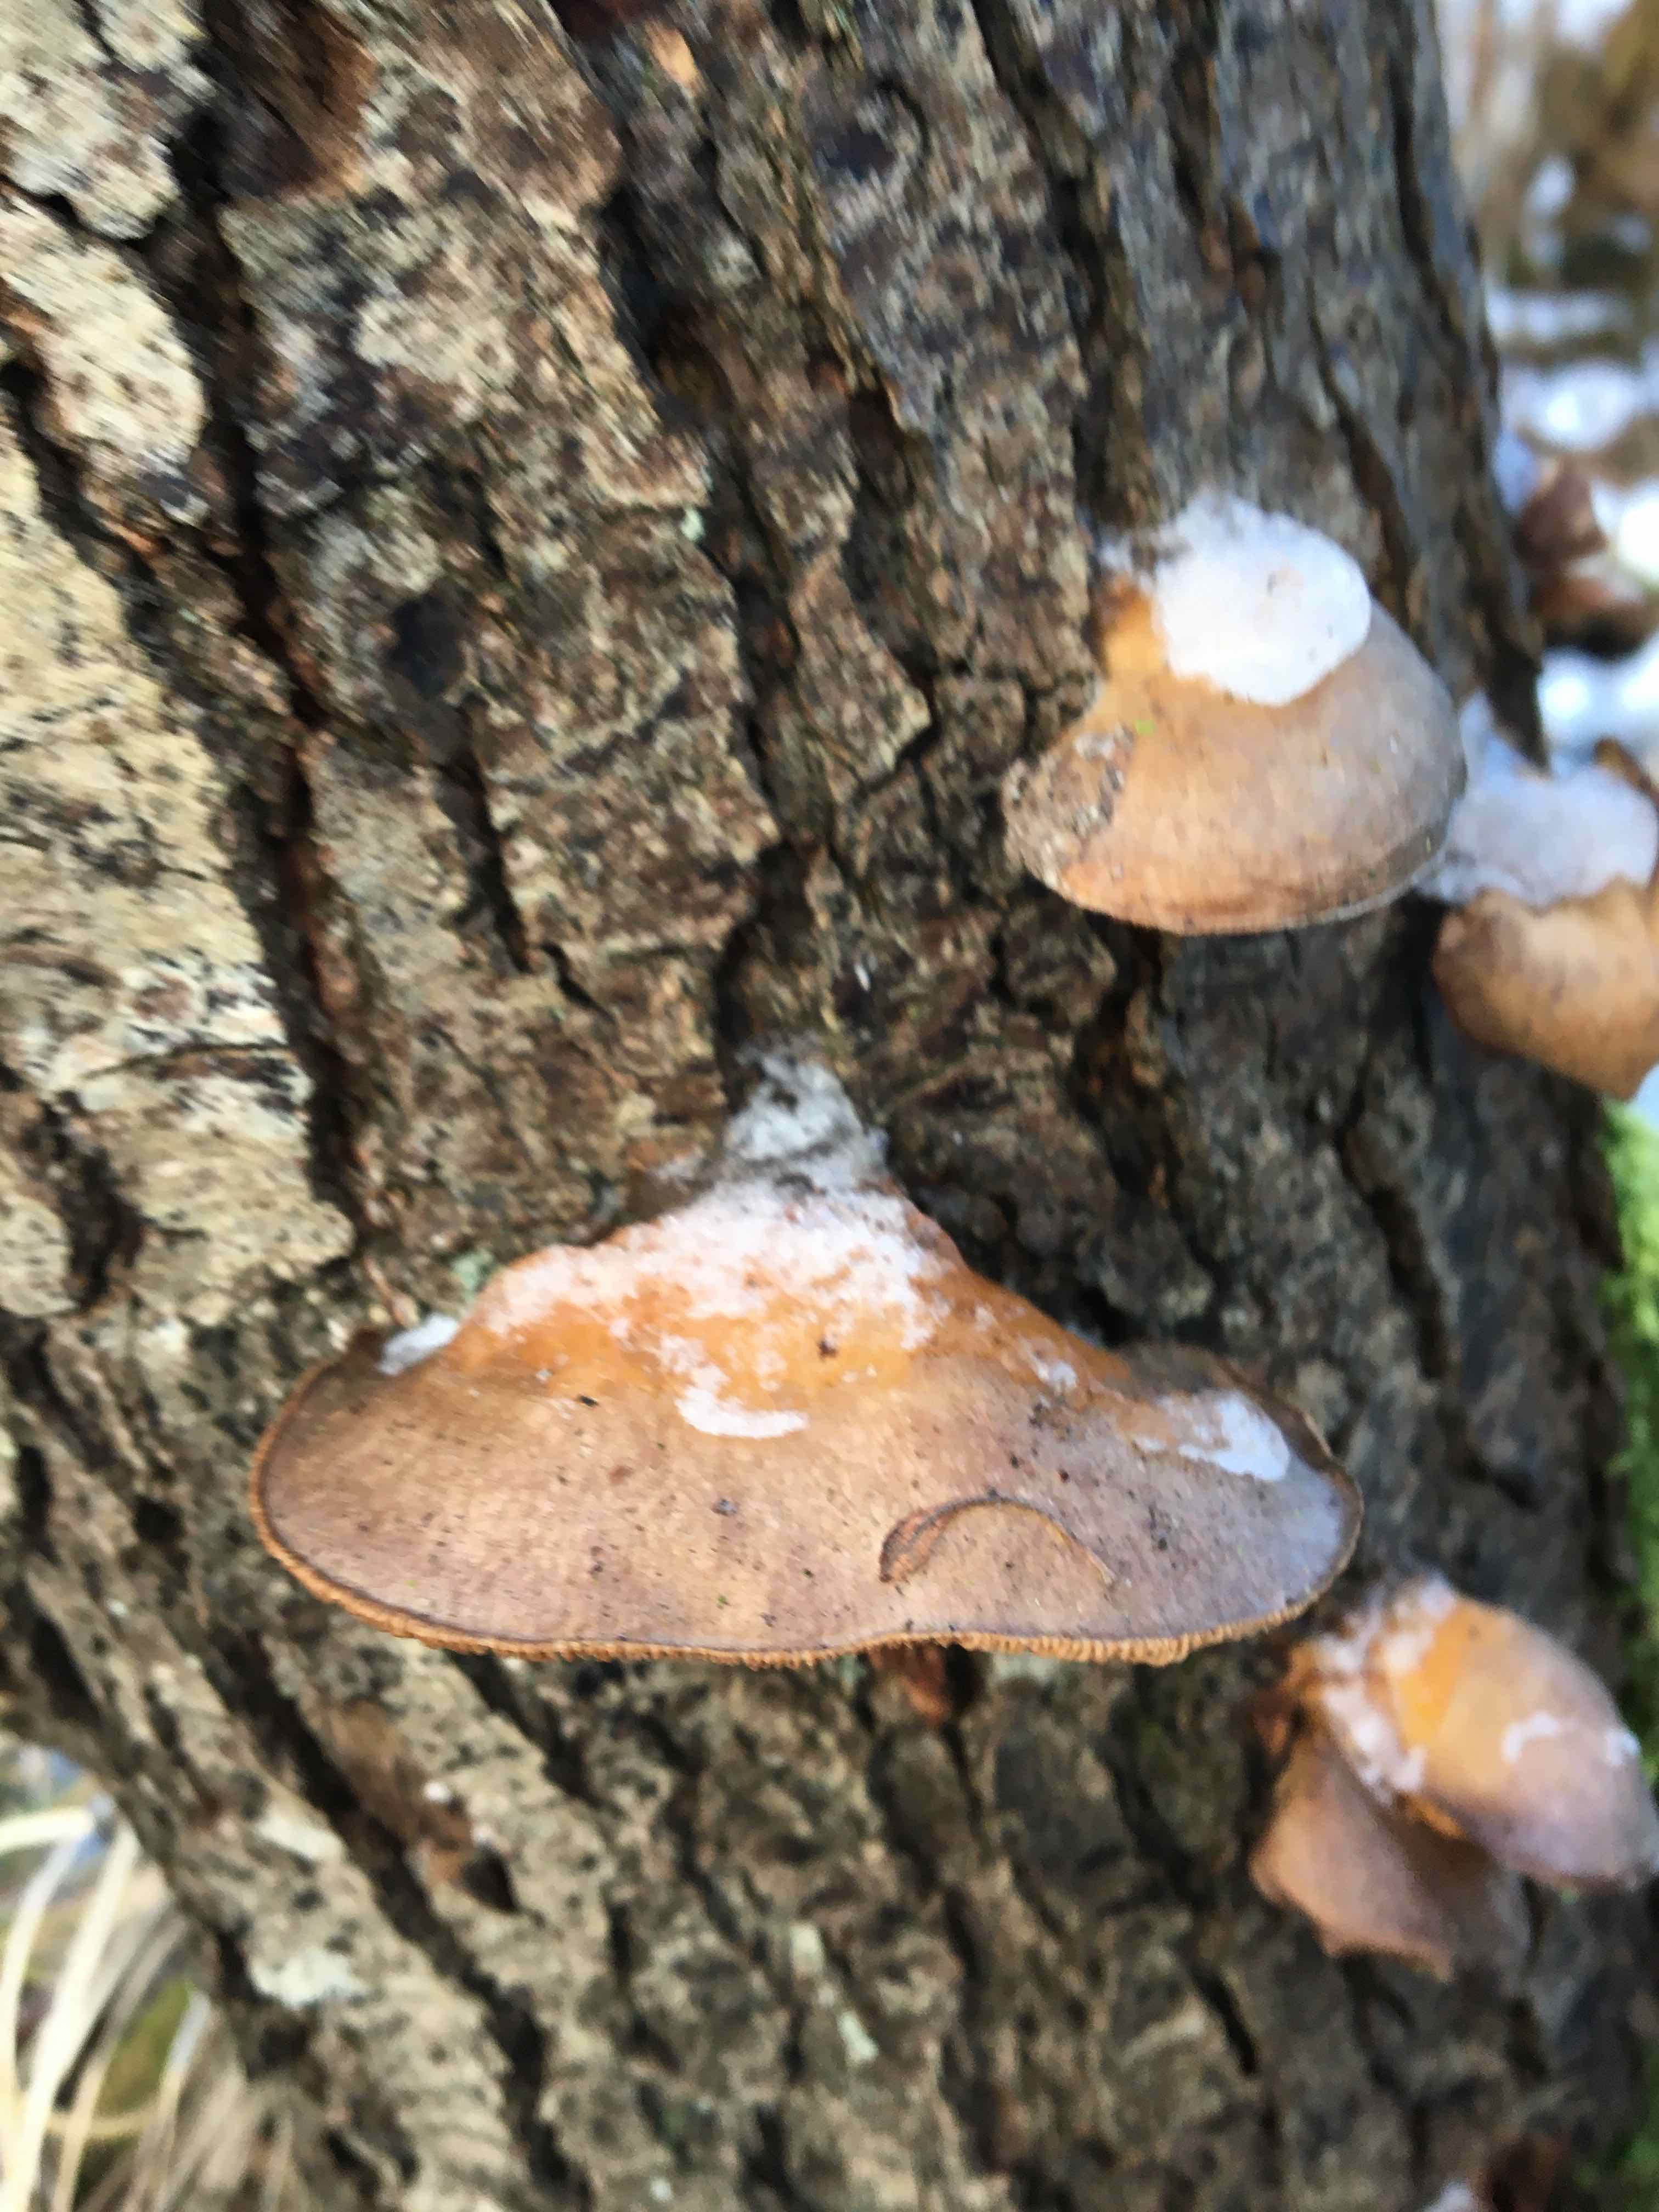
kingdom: Fungi
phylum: Basidiomycota
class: Agaricomycetes
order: Agaricales
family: Sarcomyxaceae
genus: Sarcomyxa
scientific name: Sarcomyxa serotina
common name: gummihat
